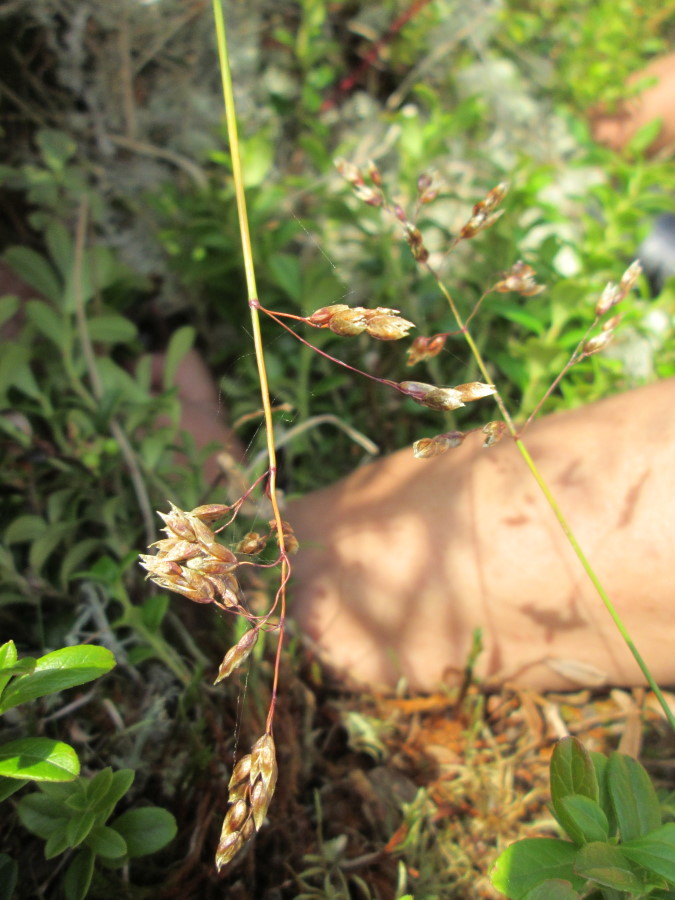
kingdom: Plantae
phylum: Tracheophyta
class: Liliopsida
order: Poales
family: Poaceae
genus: Anthoxanthum
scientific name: Anthoxanthum nitens
